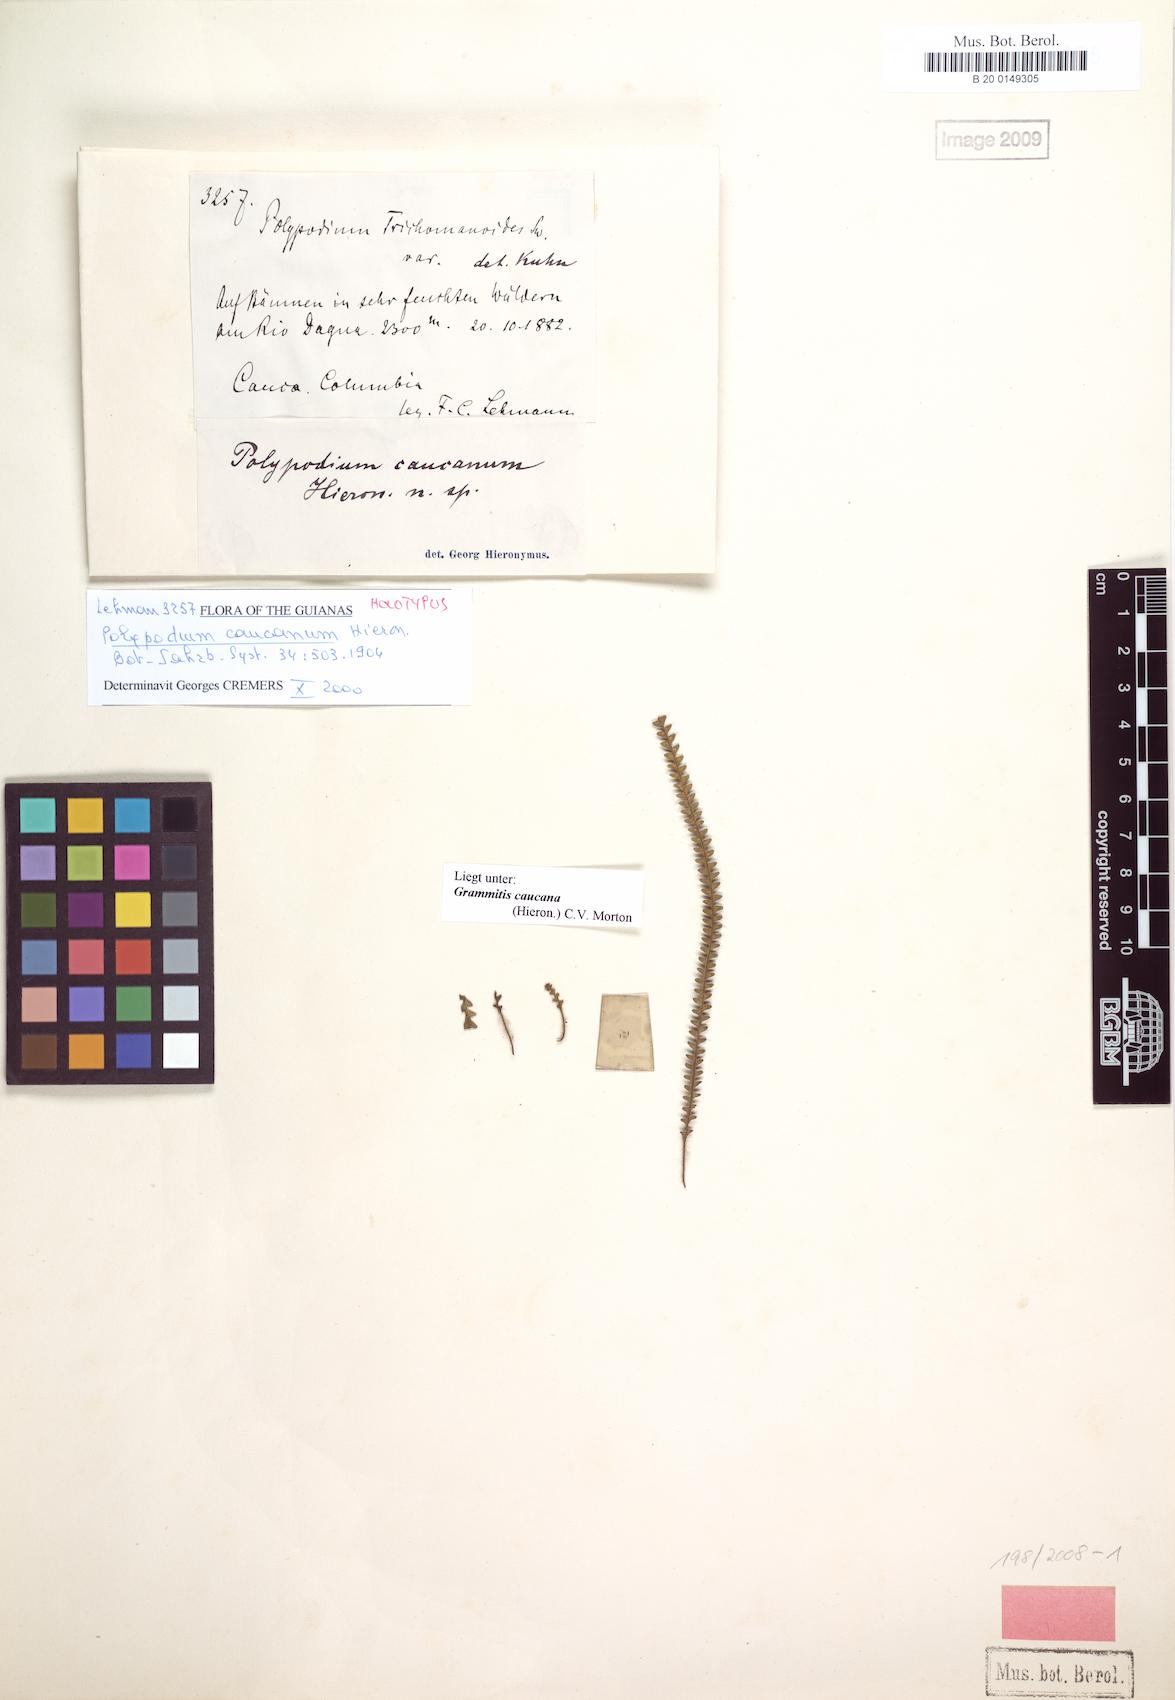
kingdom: Plantae
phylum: Tracheophyta
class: Polypodiopsida
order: Polypodiales
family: Polypodiaceae
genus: Moranopteris
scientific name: Moranopteris caucana
